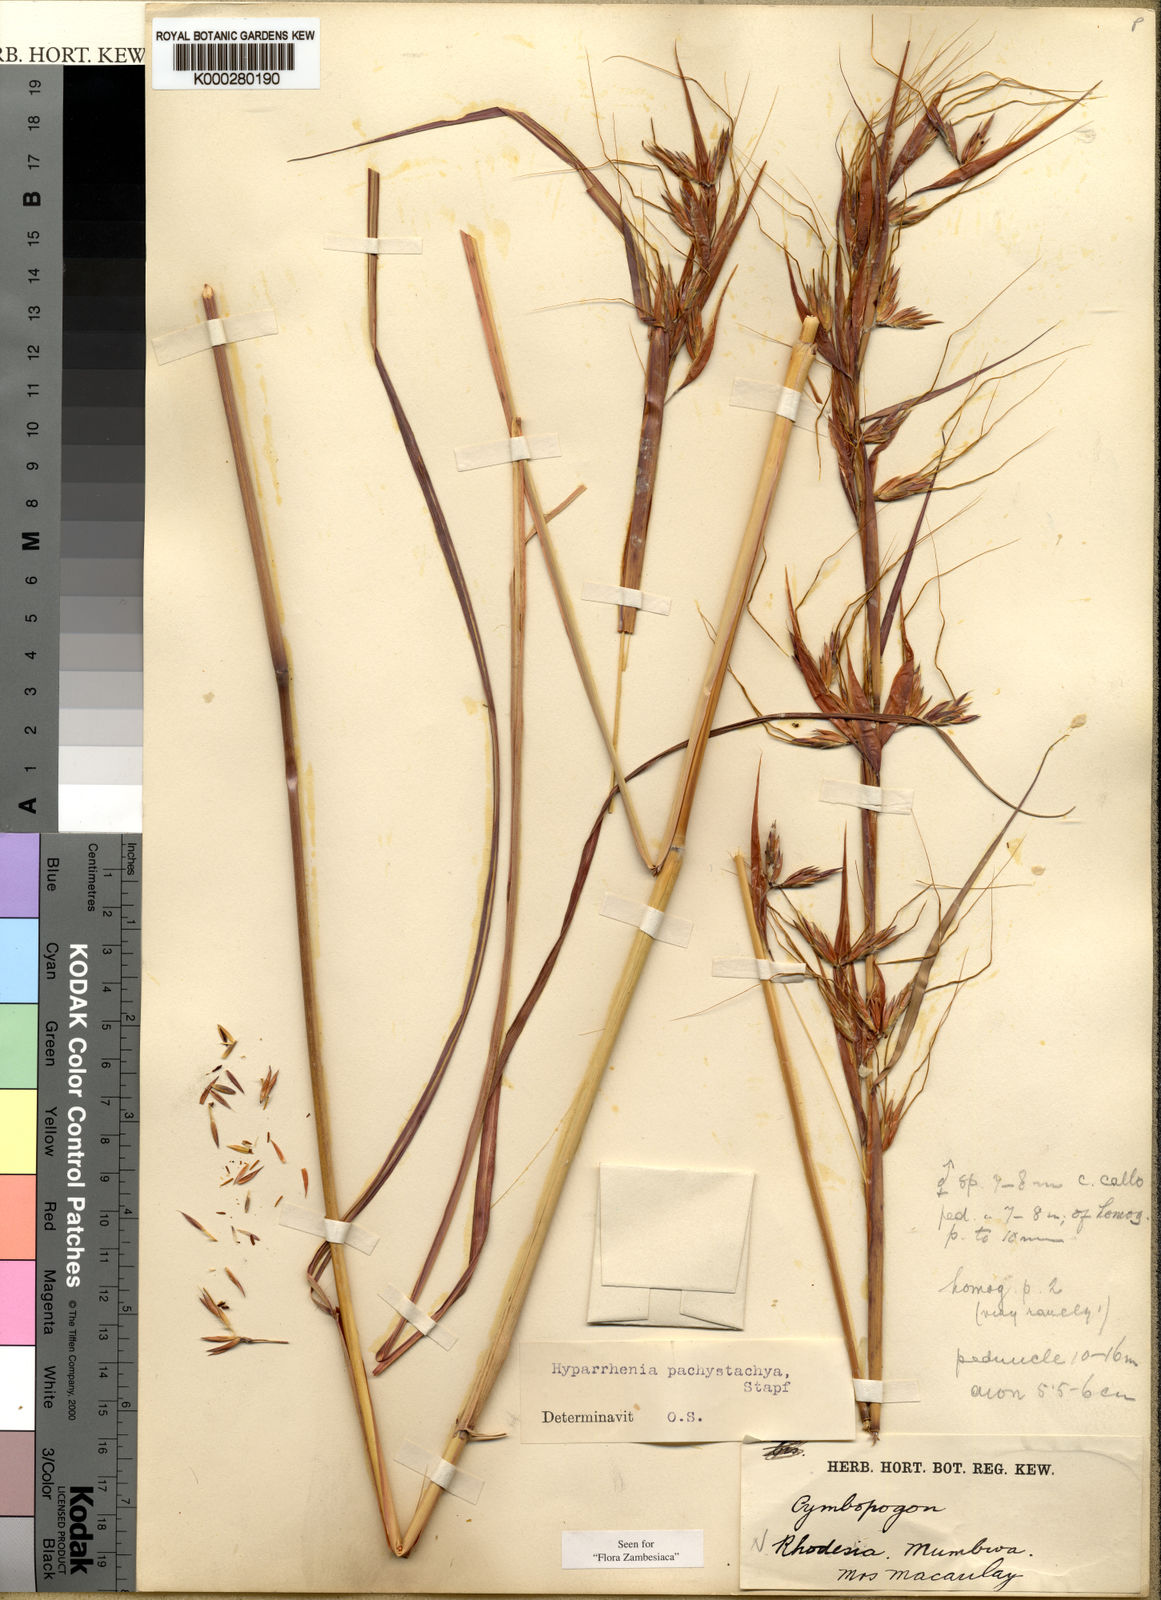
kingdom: Plantae
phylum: Tracheophyta
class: Liliopsida
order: Poales
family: Poaceae
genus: Hyparrhenia
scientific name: Hyparrhenia diplandra
